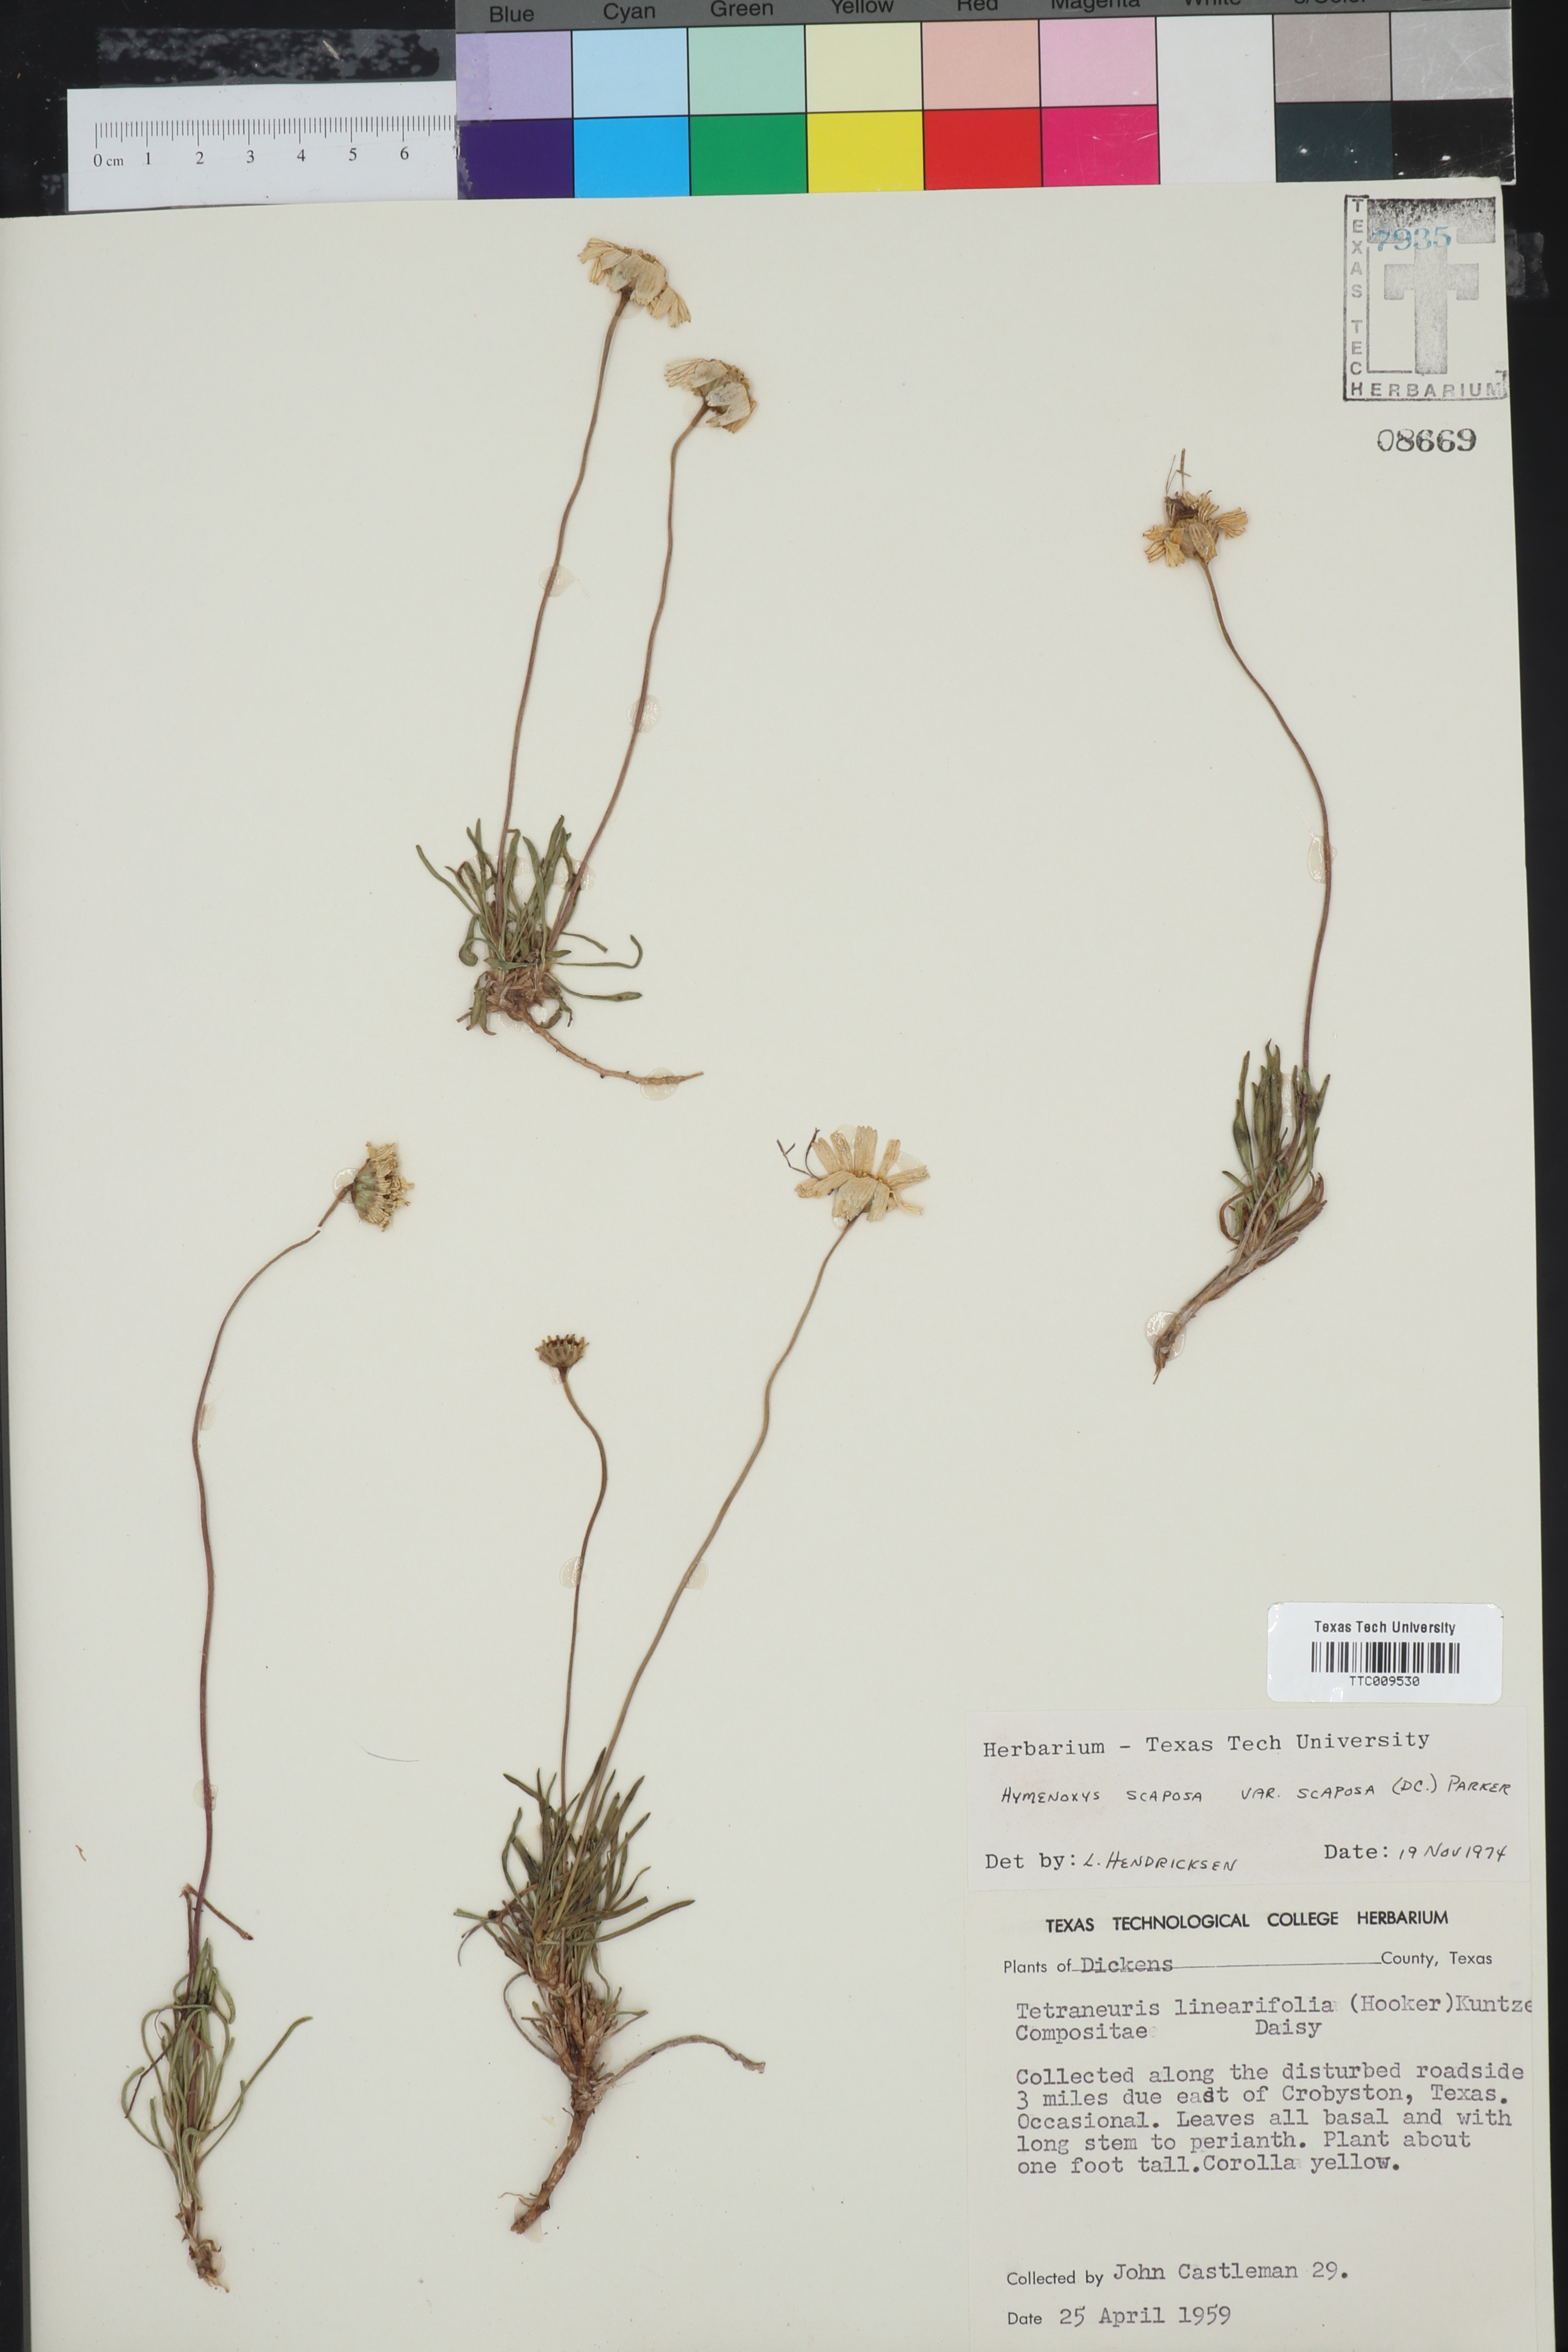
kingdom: Plantae
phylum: Tracheophyta
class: Magnoliopsida
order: Asterales
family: Asteraceae
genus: Tetraneuris
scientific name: Tetraneuris scaposa
